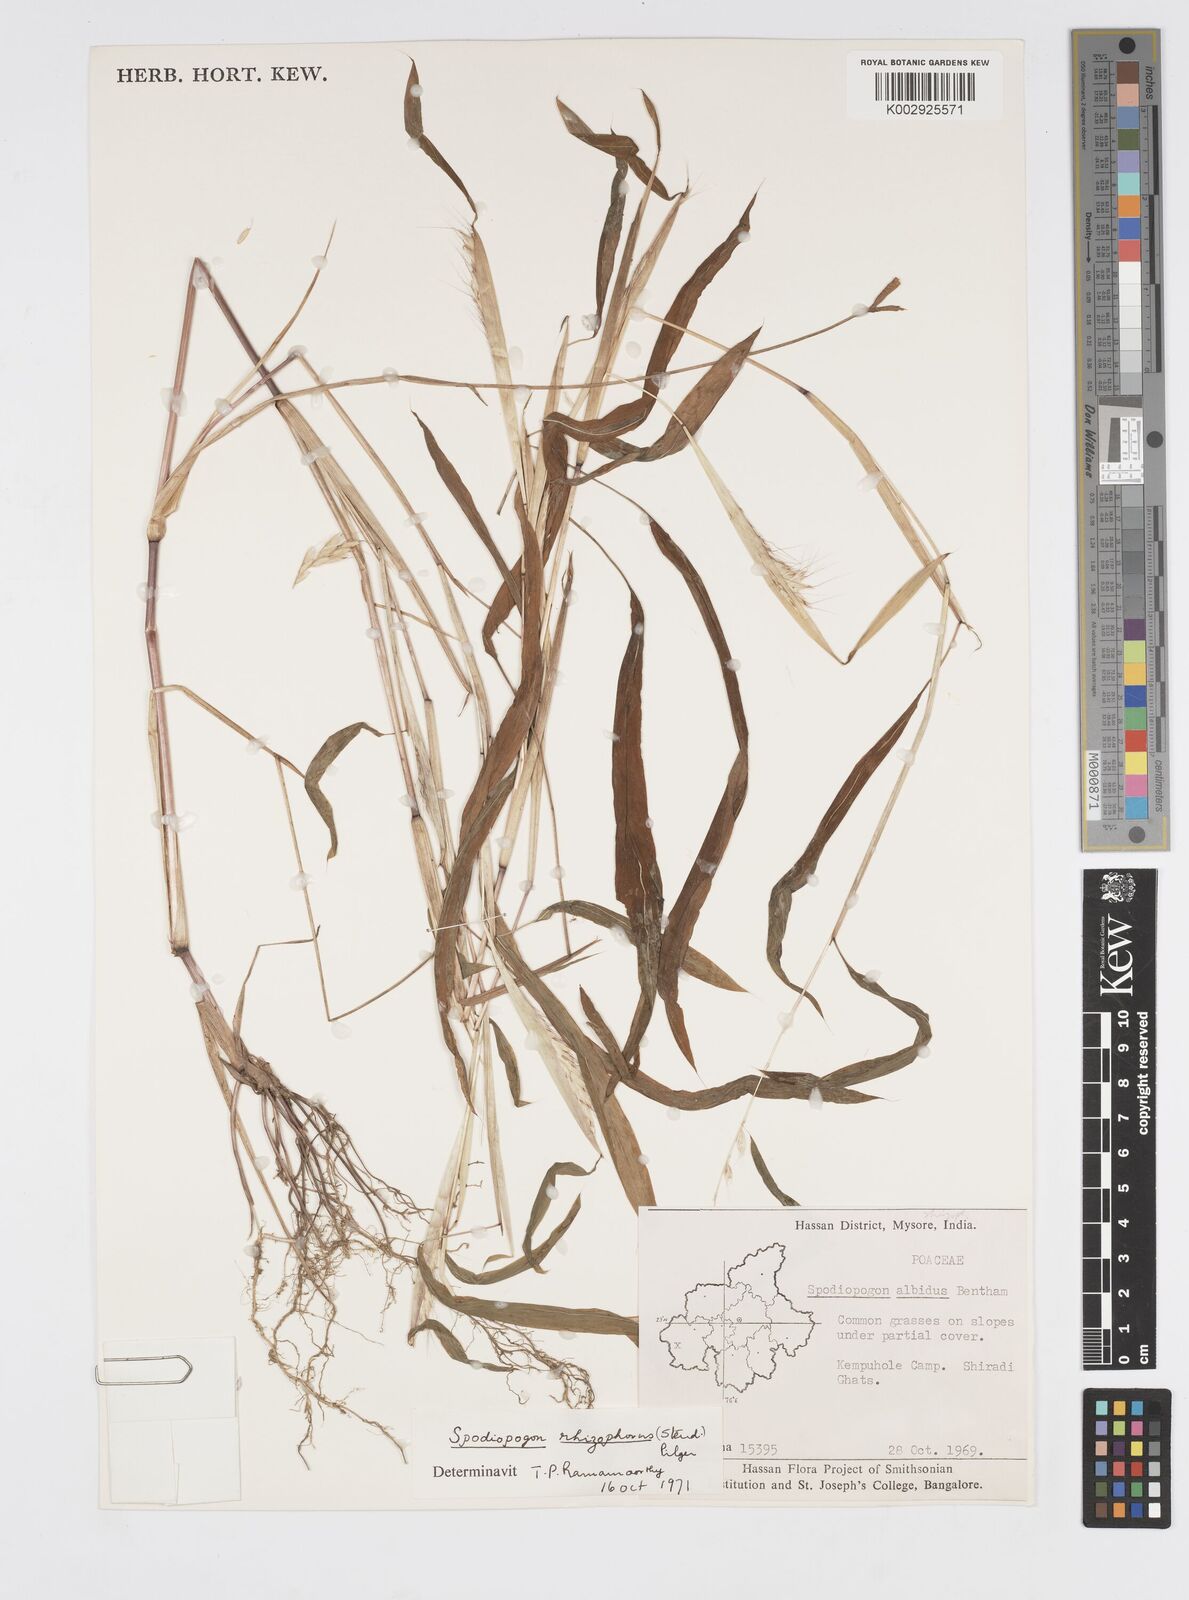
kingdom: Plantae
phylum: Tracheophyta
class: Liliopsida
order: Poales
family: Poaceae
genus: Spodiopogon
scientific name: Spodiopogon rhizophorus
